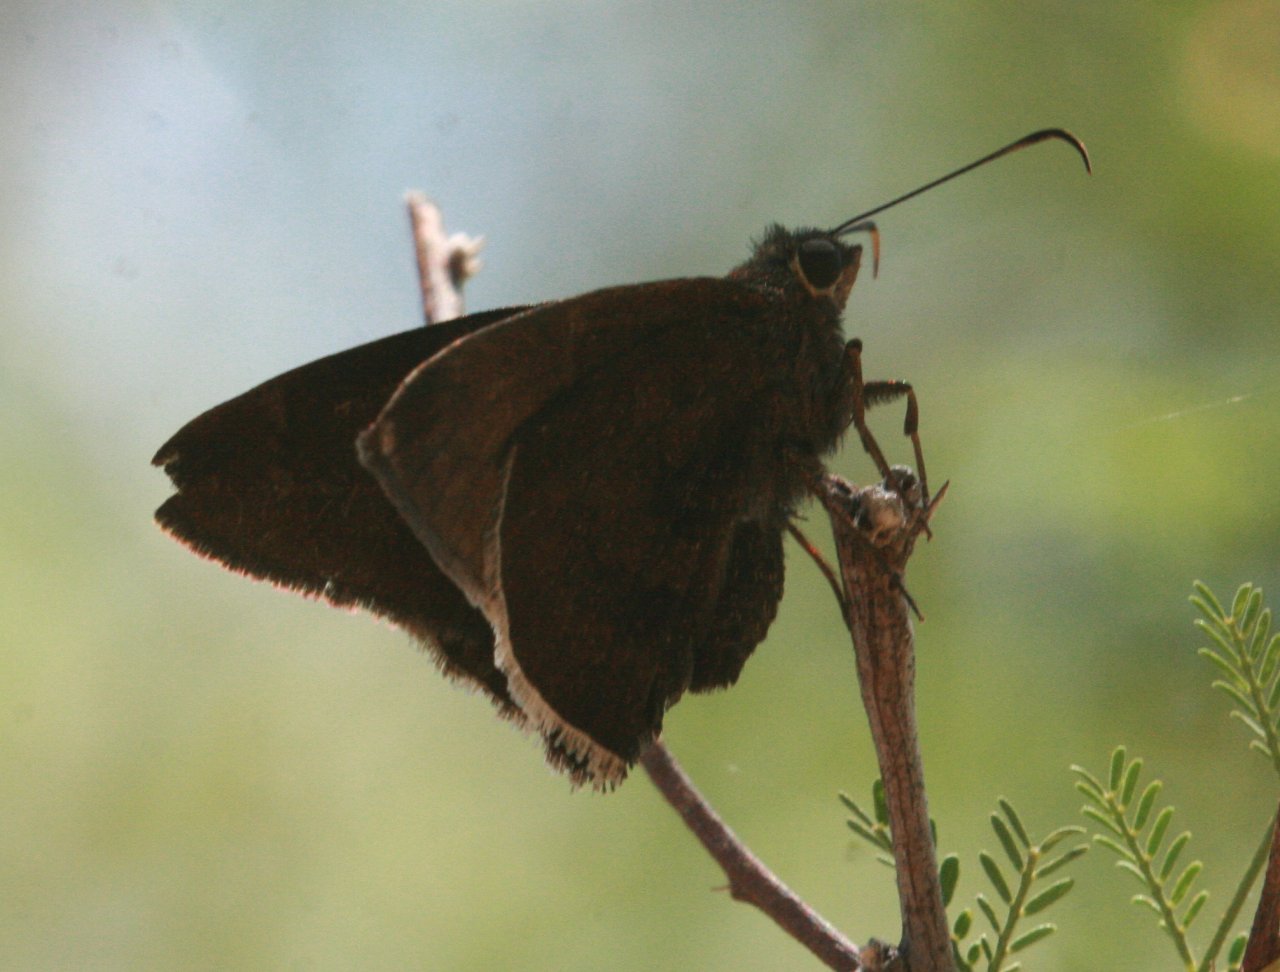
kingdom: Animalia
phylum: Arthropoda
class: Insecta
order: Lepidoptera
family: Hesperiidae
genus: Achalarus
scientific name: Achalarus toxeus
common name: Coyote Cloudywing
